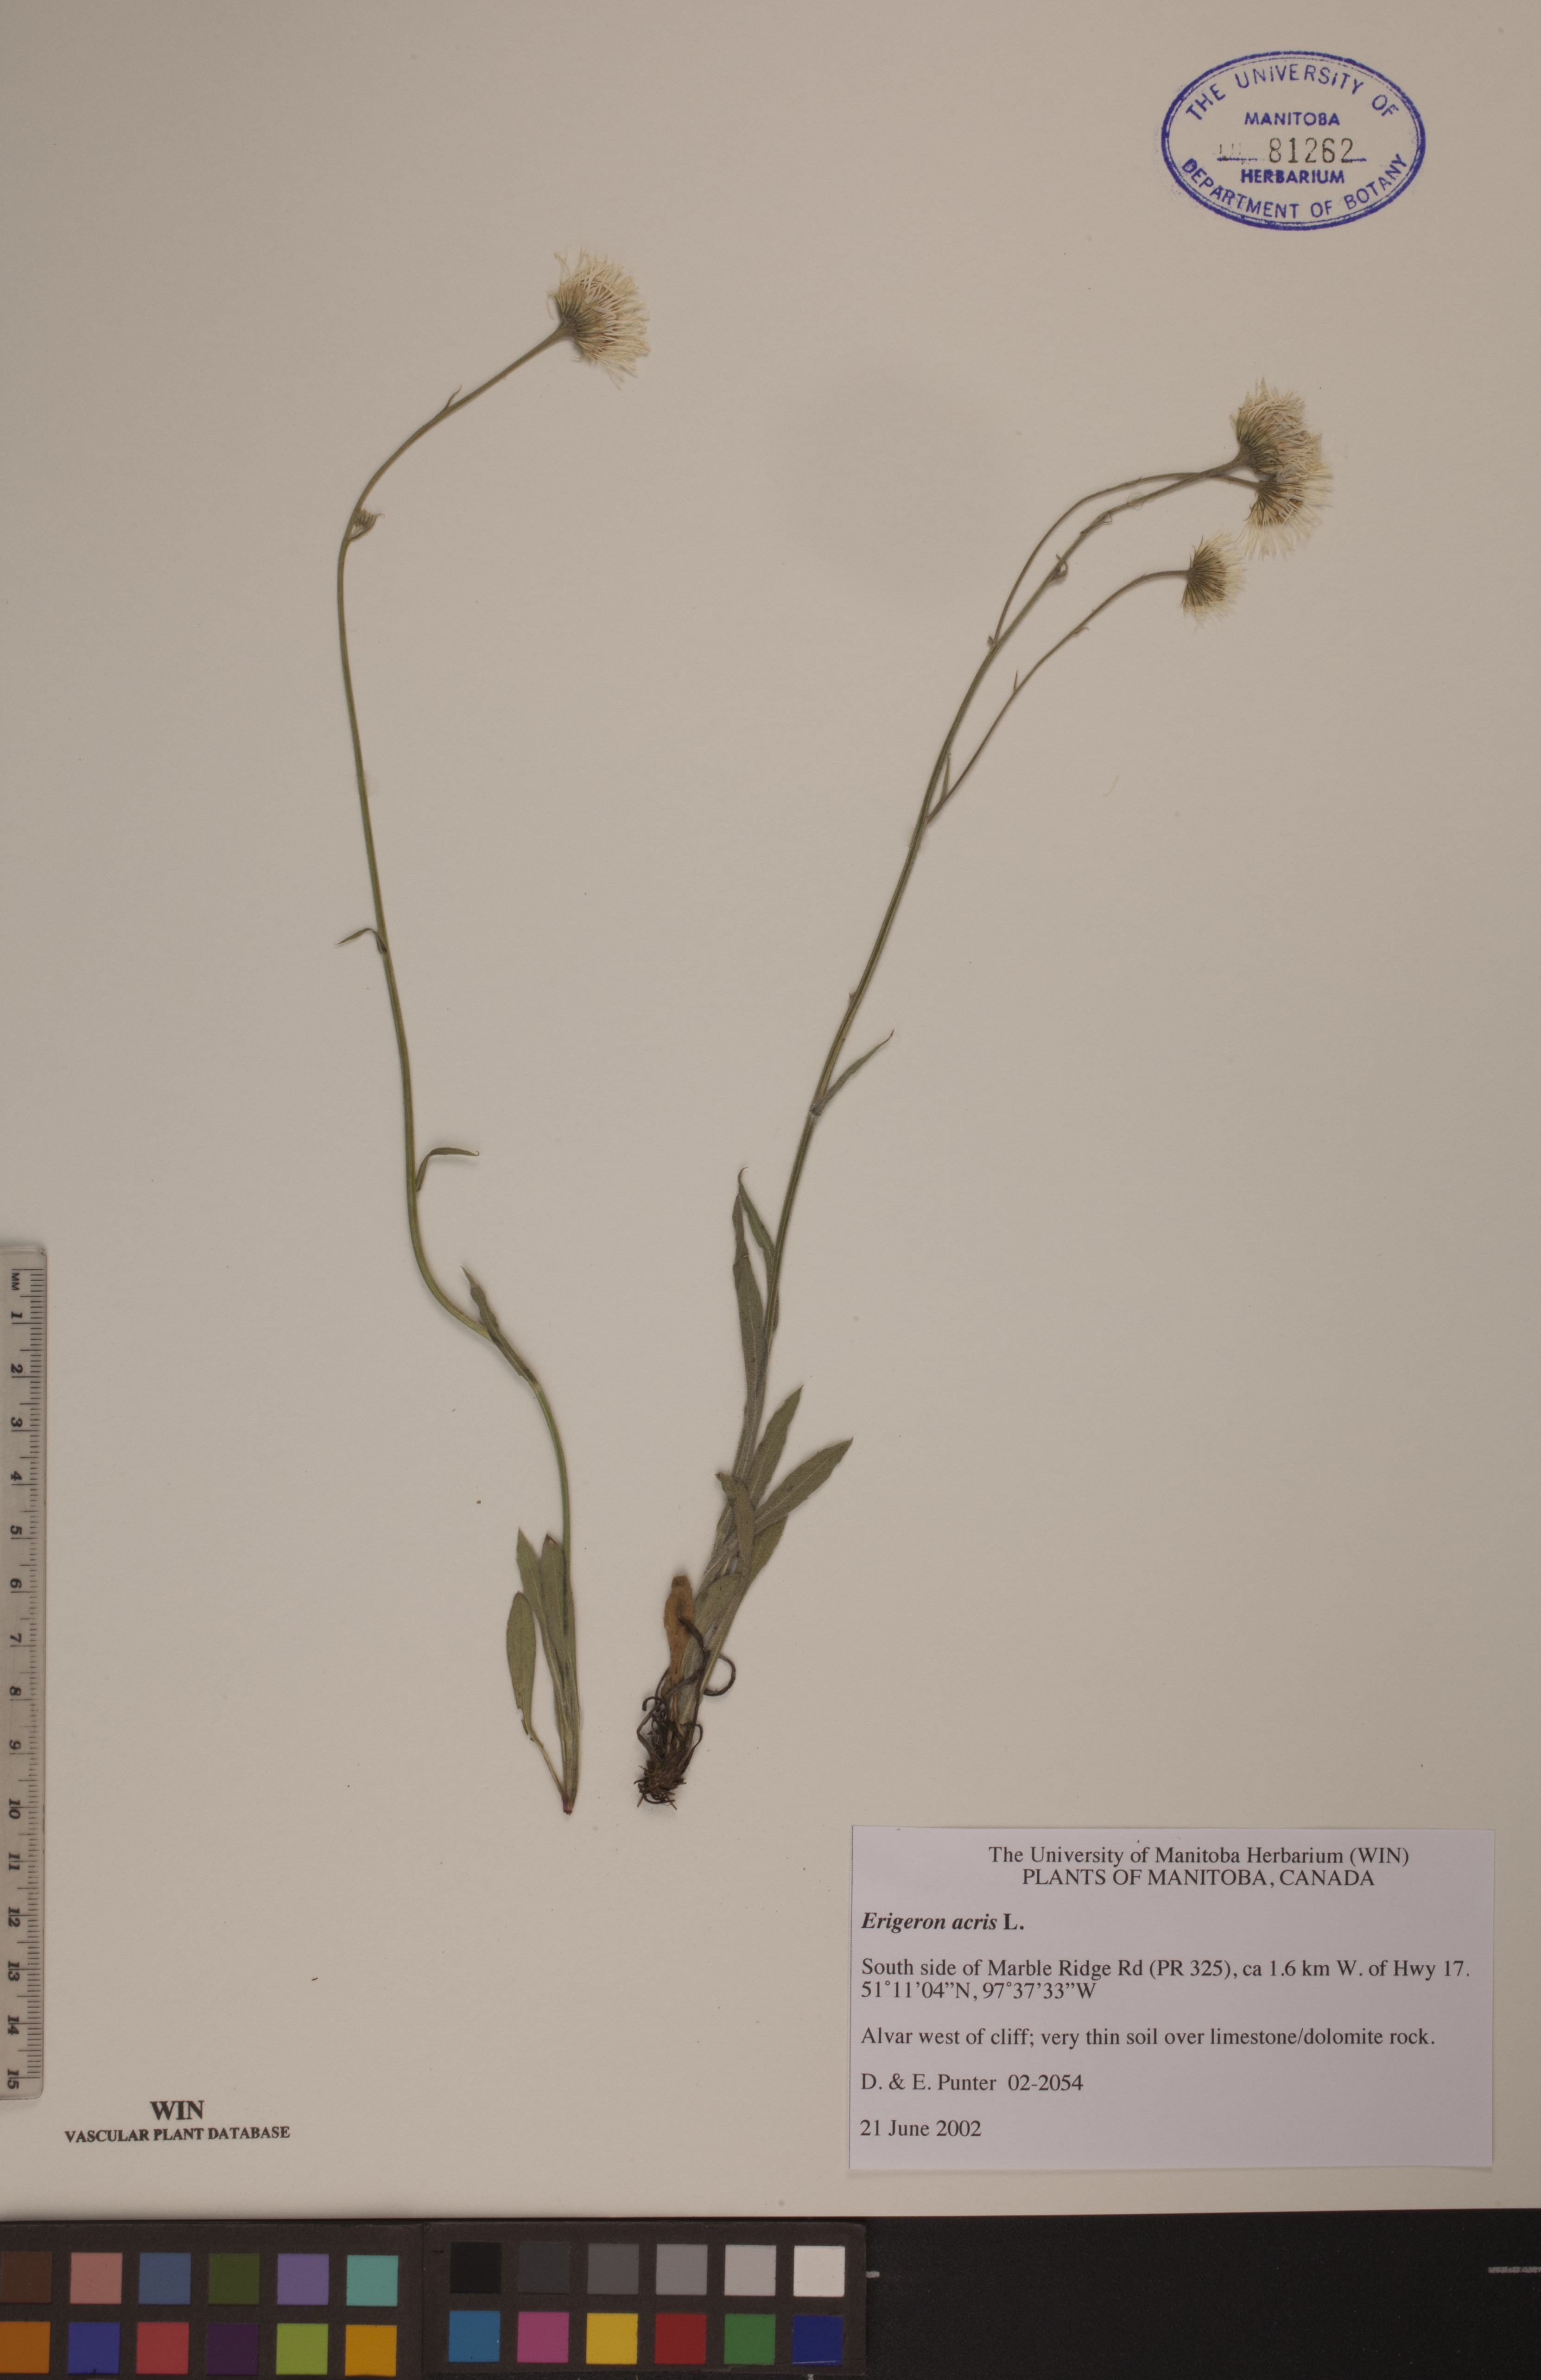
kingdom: Plantae
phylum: Tracheophyta
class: Magnoliopsida
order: Asterales
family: Asteraceae
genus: Erigeron
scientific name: Erigeron acris
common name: Blue fleabane
